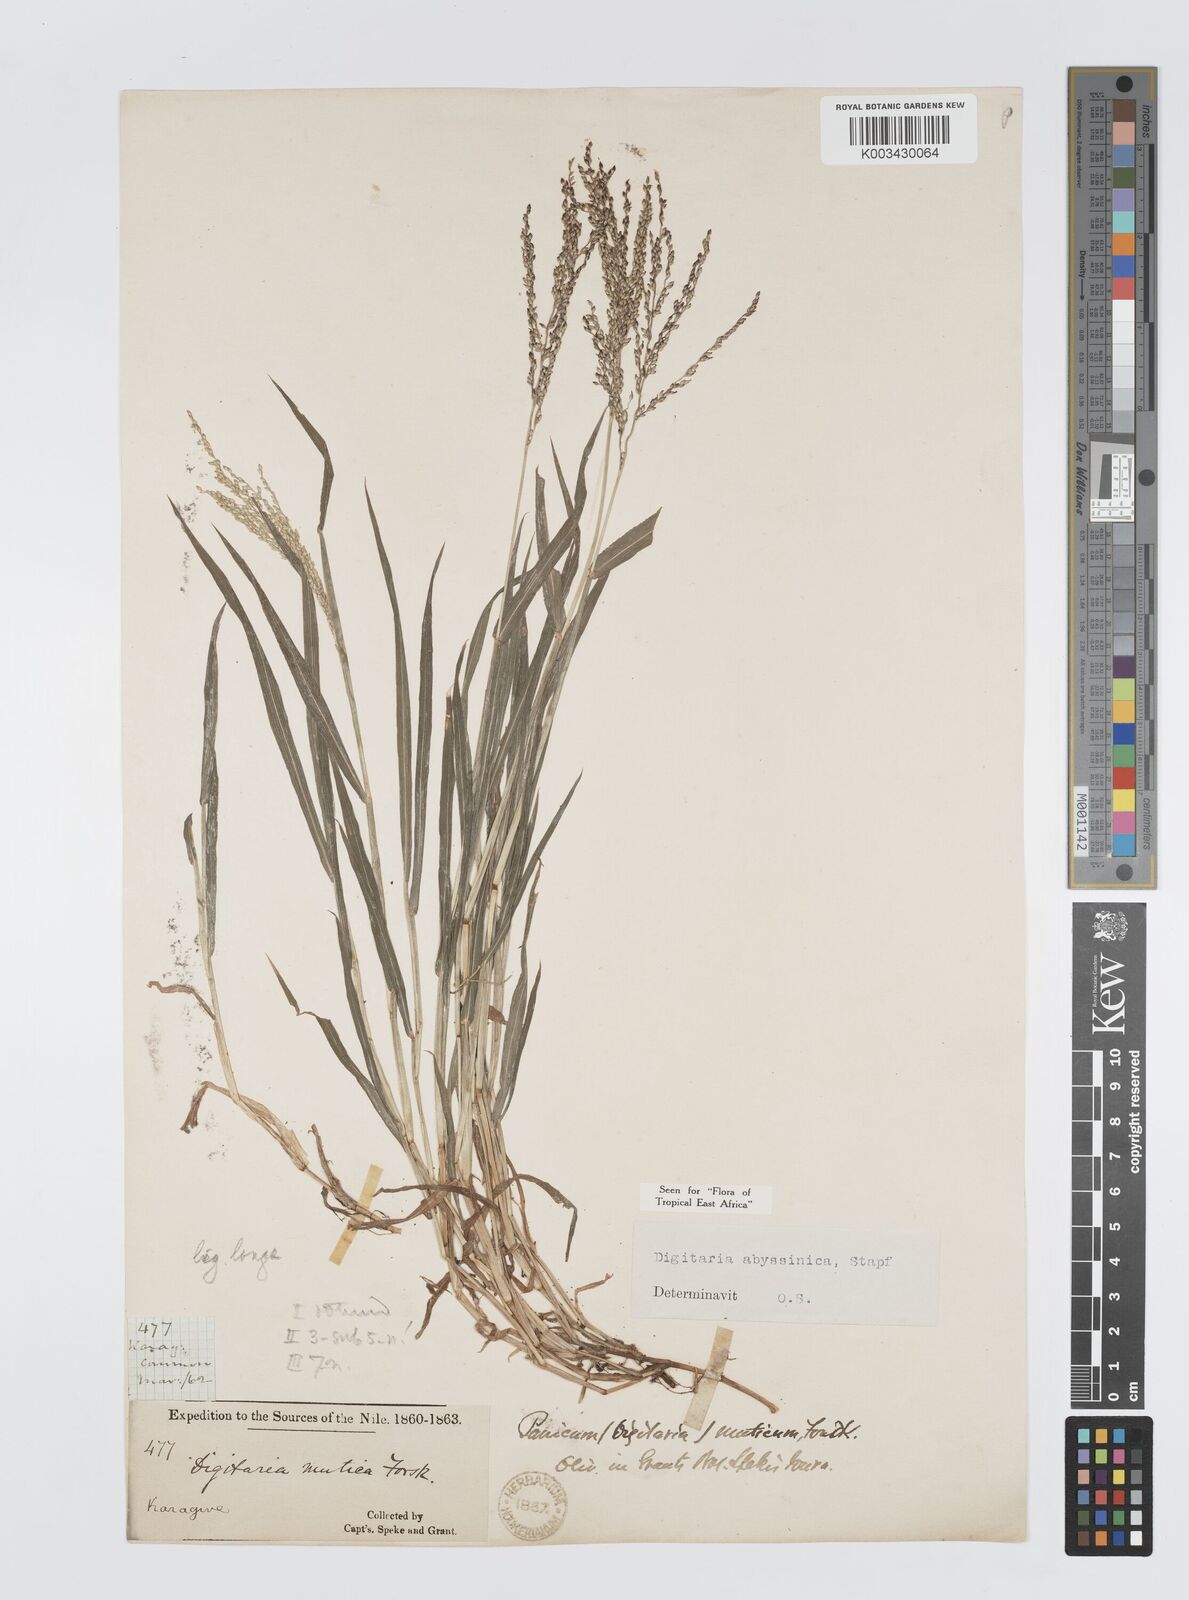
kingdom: Plantae
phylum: Tracheophyta
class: Liliopsida
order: Poales
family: Poaceae
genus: Digitaria
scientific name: Digitaria abyssinica
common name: African couchgrass
